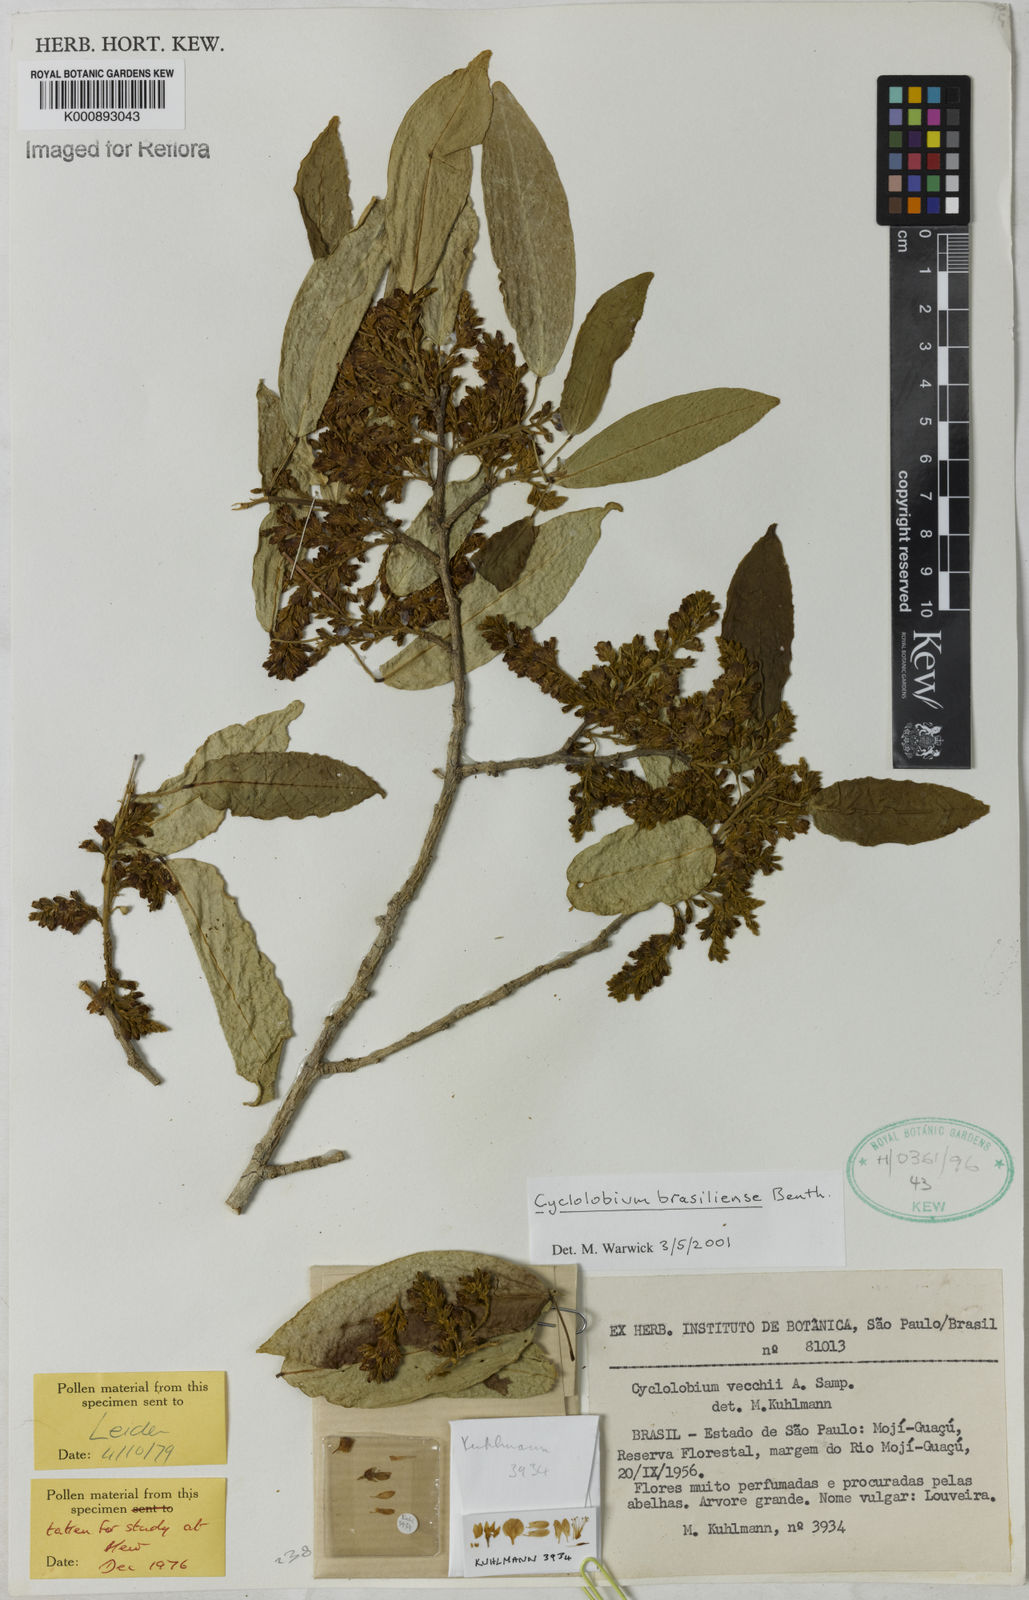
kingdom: Plantae
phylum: Tracheophyta
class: Magnoliopsida
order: Fabales
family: Fabaceae
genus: Cyclolobium
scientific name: Cyclolobium brasiliense
